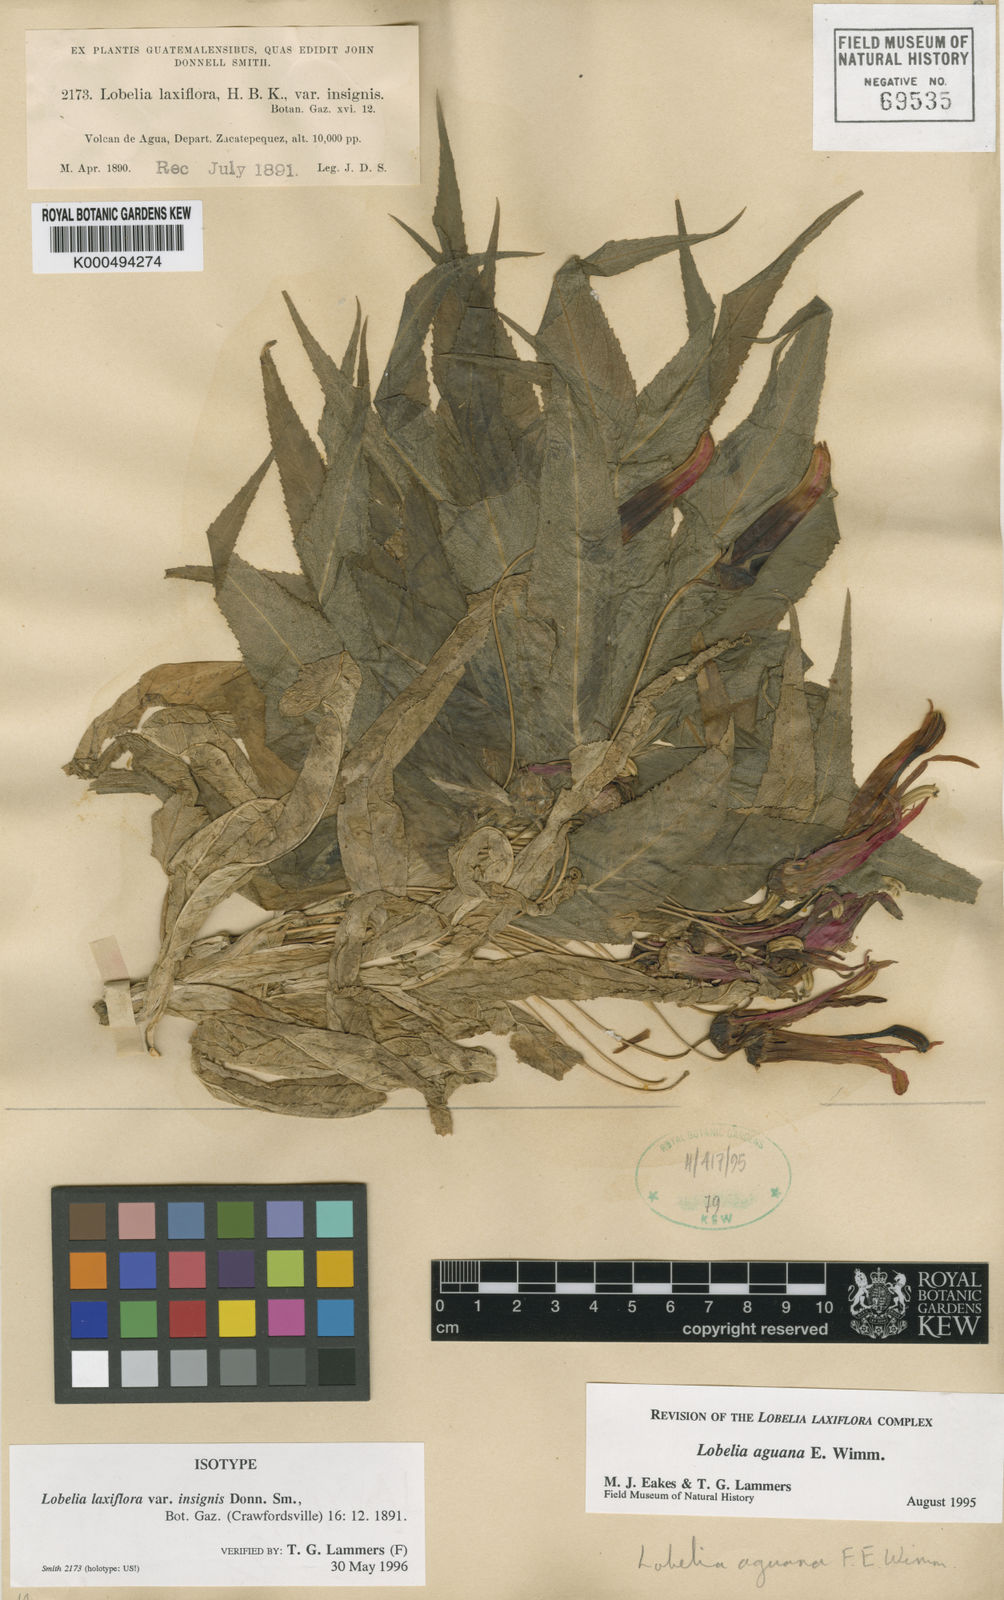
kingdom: Plantae
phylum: Tracheophyta
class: Magnoliopsida
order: Asterales
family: Campanulaceae
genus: Lobelia
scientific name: Lobelia aguana
